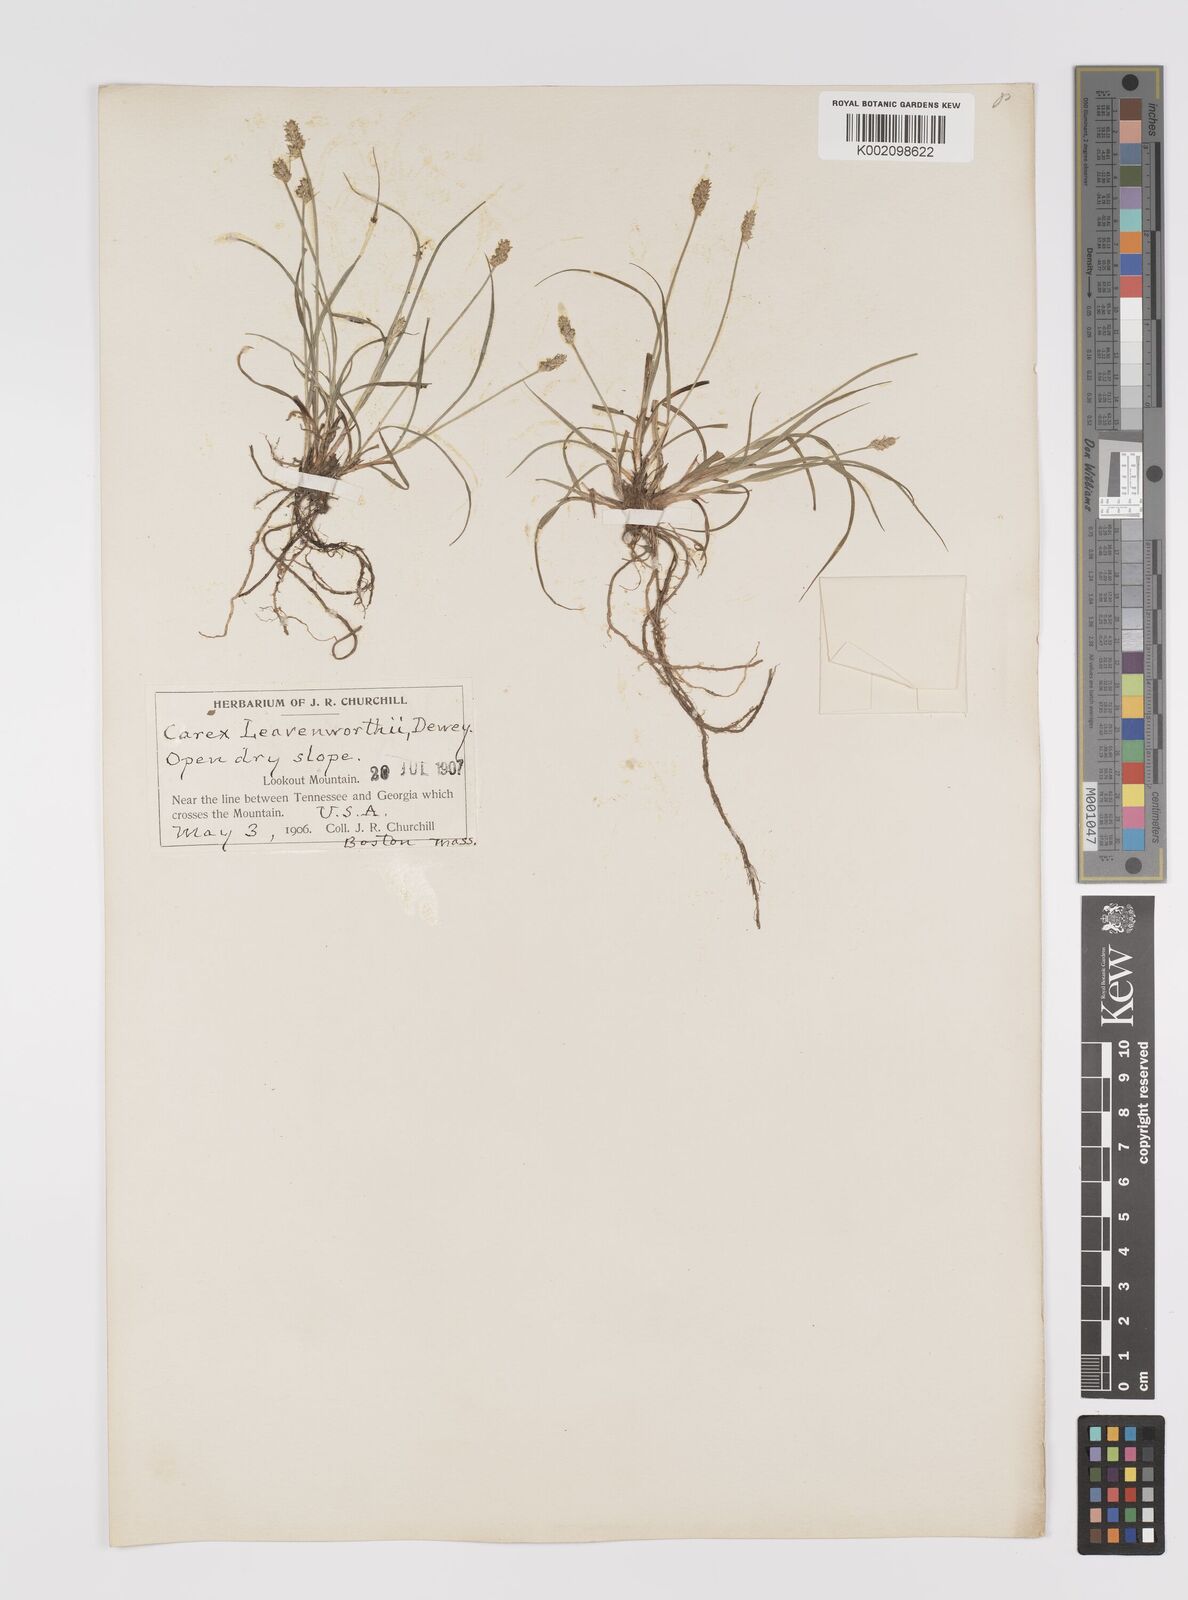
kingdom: Plantae
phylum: Tracheophyta
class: Liliopsida
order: Poales
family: Cyperaceae
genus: Carex
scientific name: Carex cephalophora
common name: Oval-headed sedge
